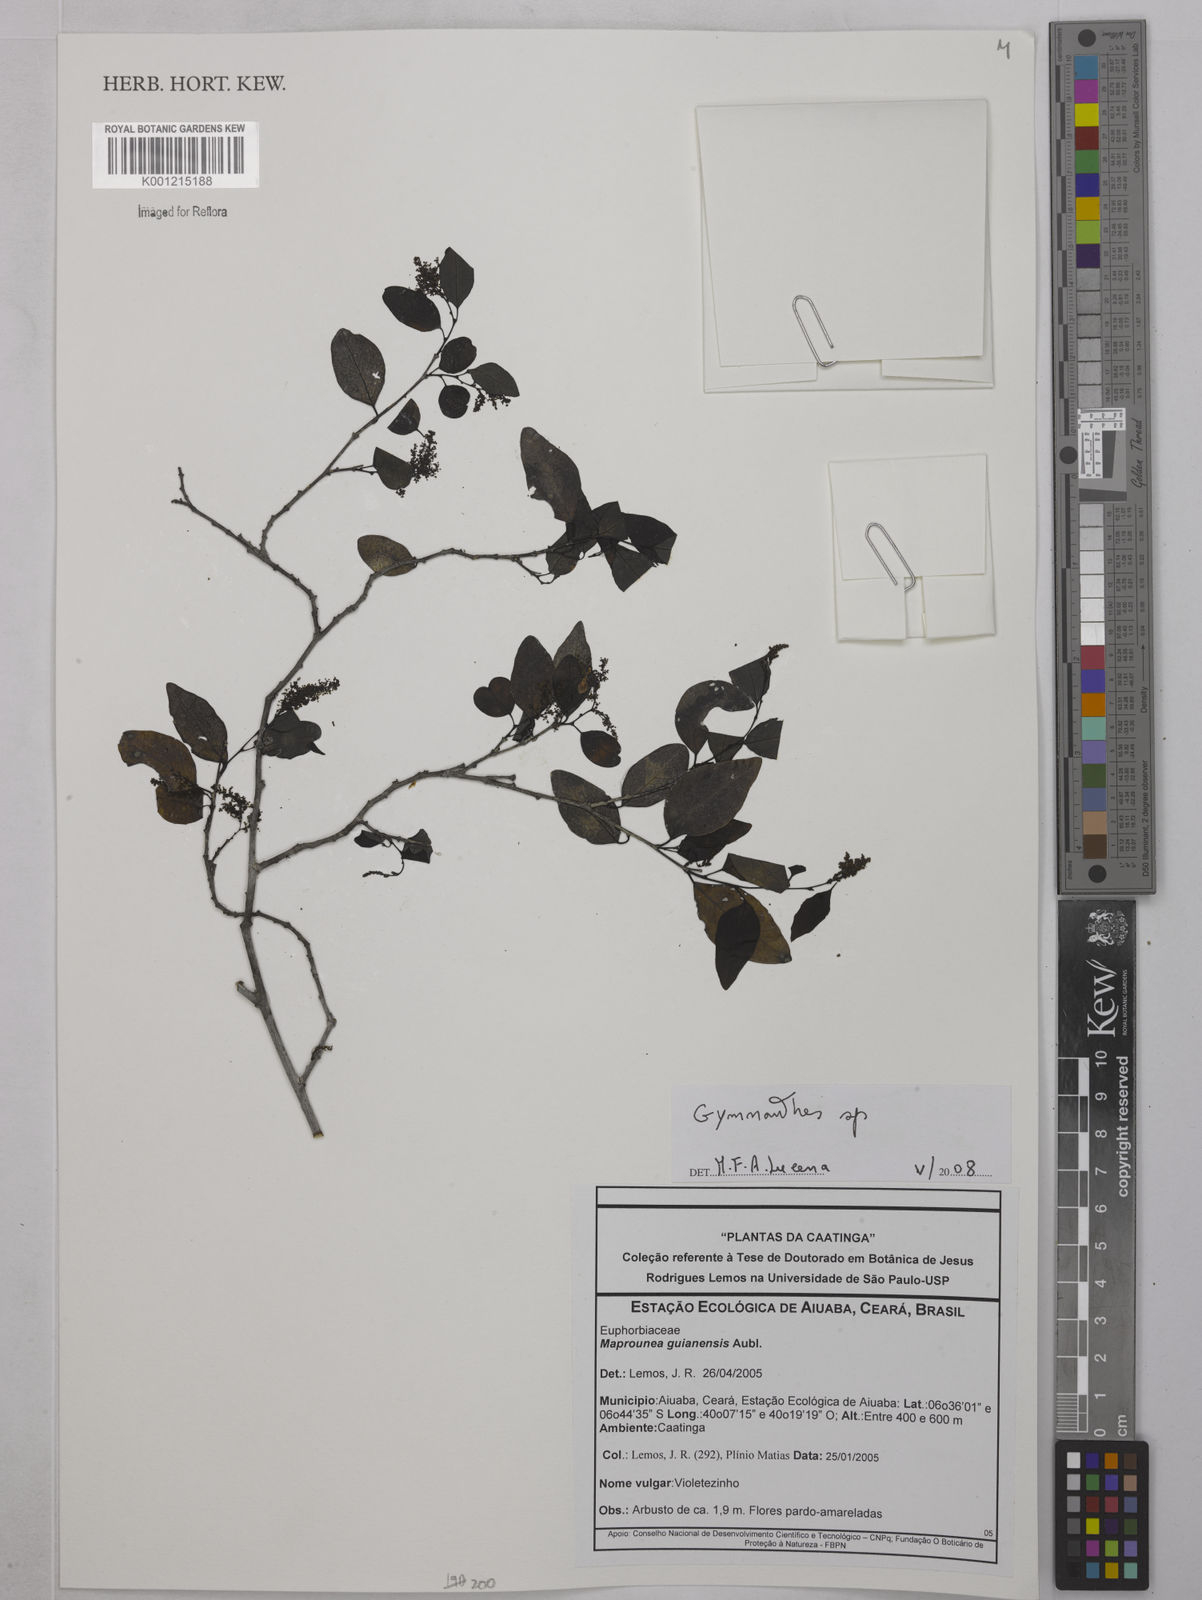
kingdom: Plantae
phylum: Tracheophyta
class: Magnoliopsida
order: Malpighiales
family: Euphorbiaceae
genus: Gymnanthes
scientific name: Gymnanthes
